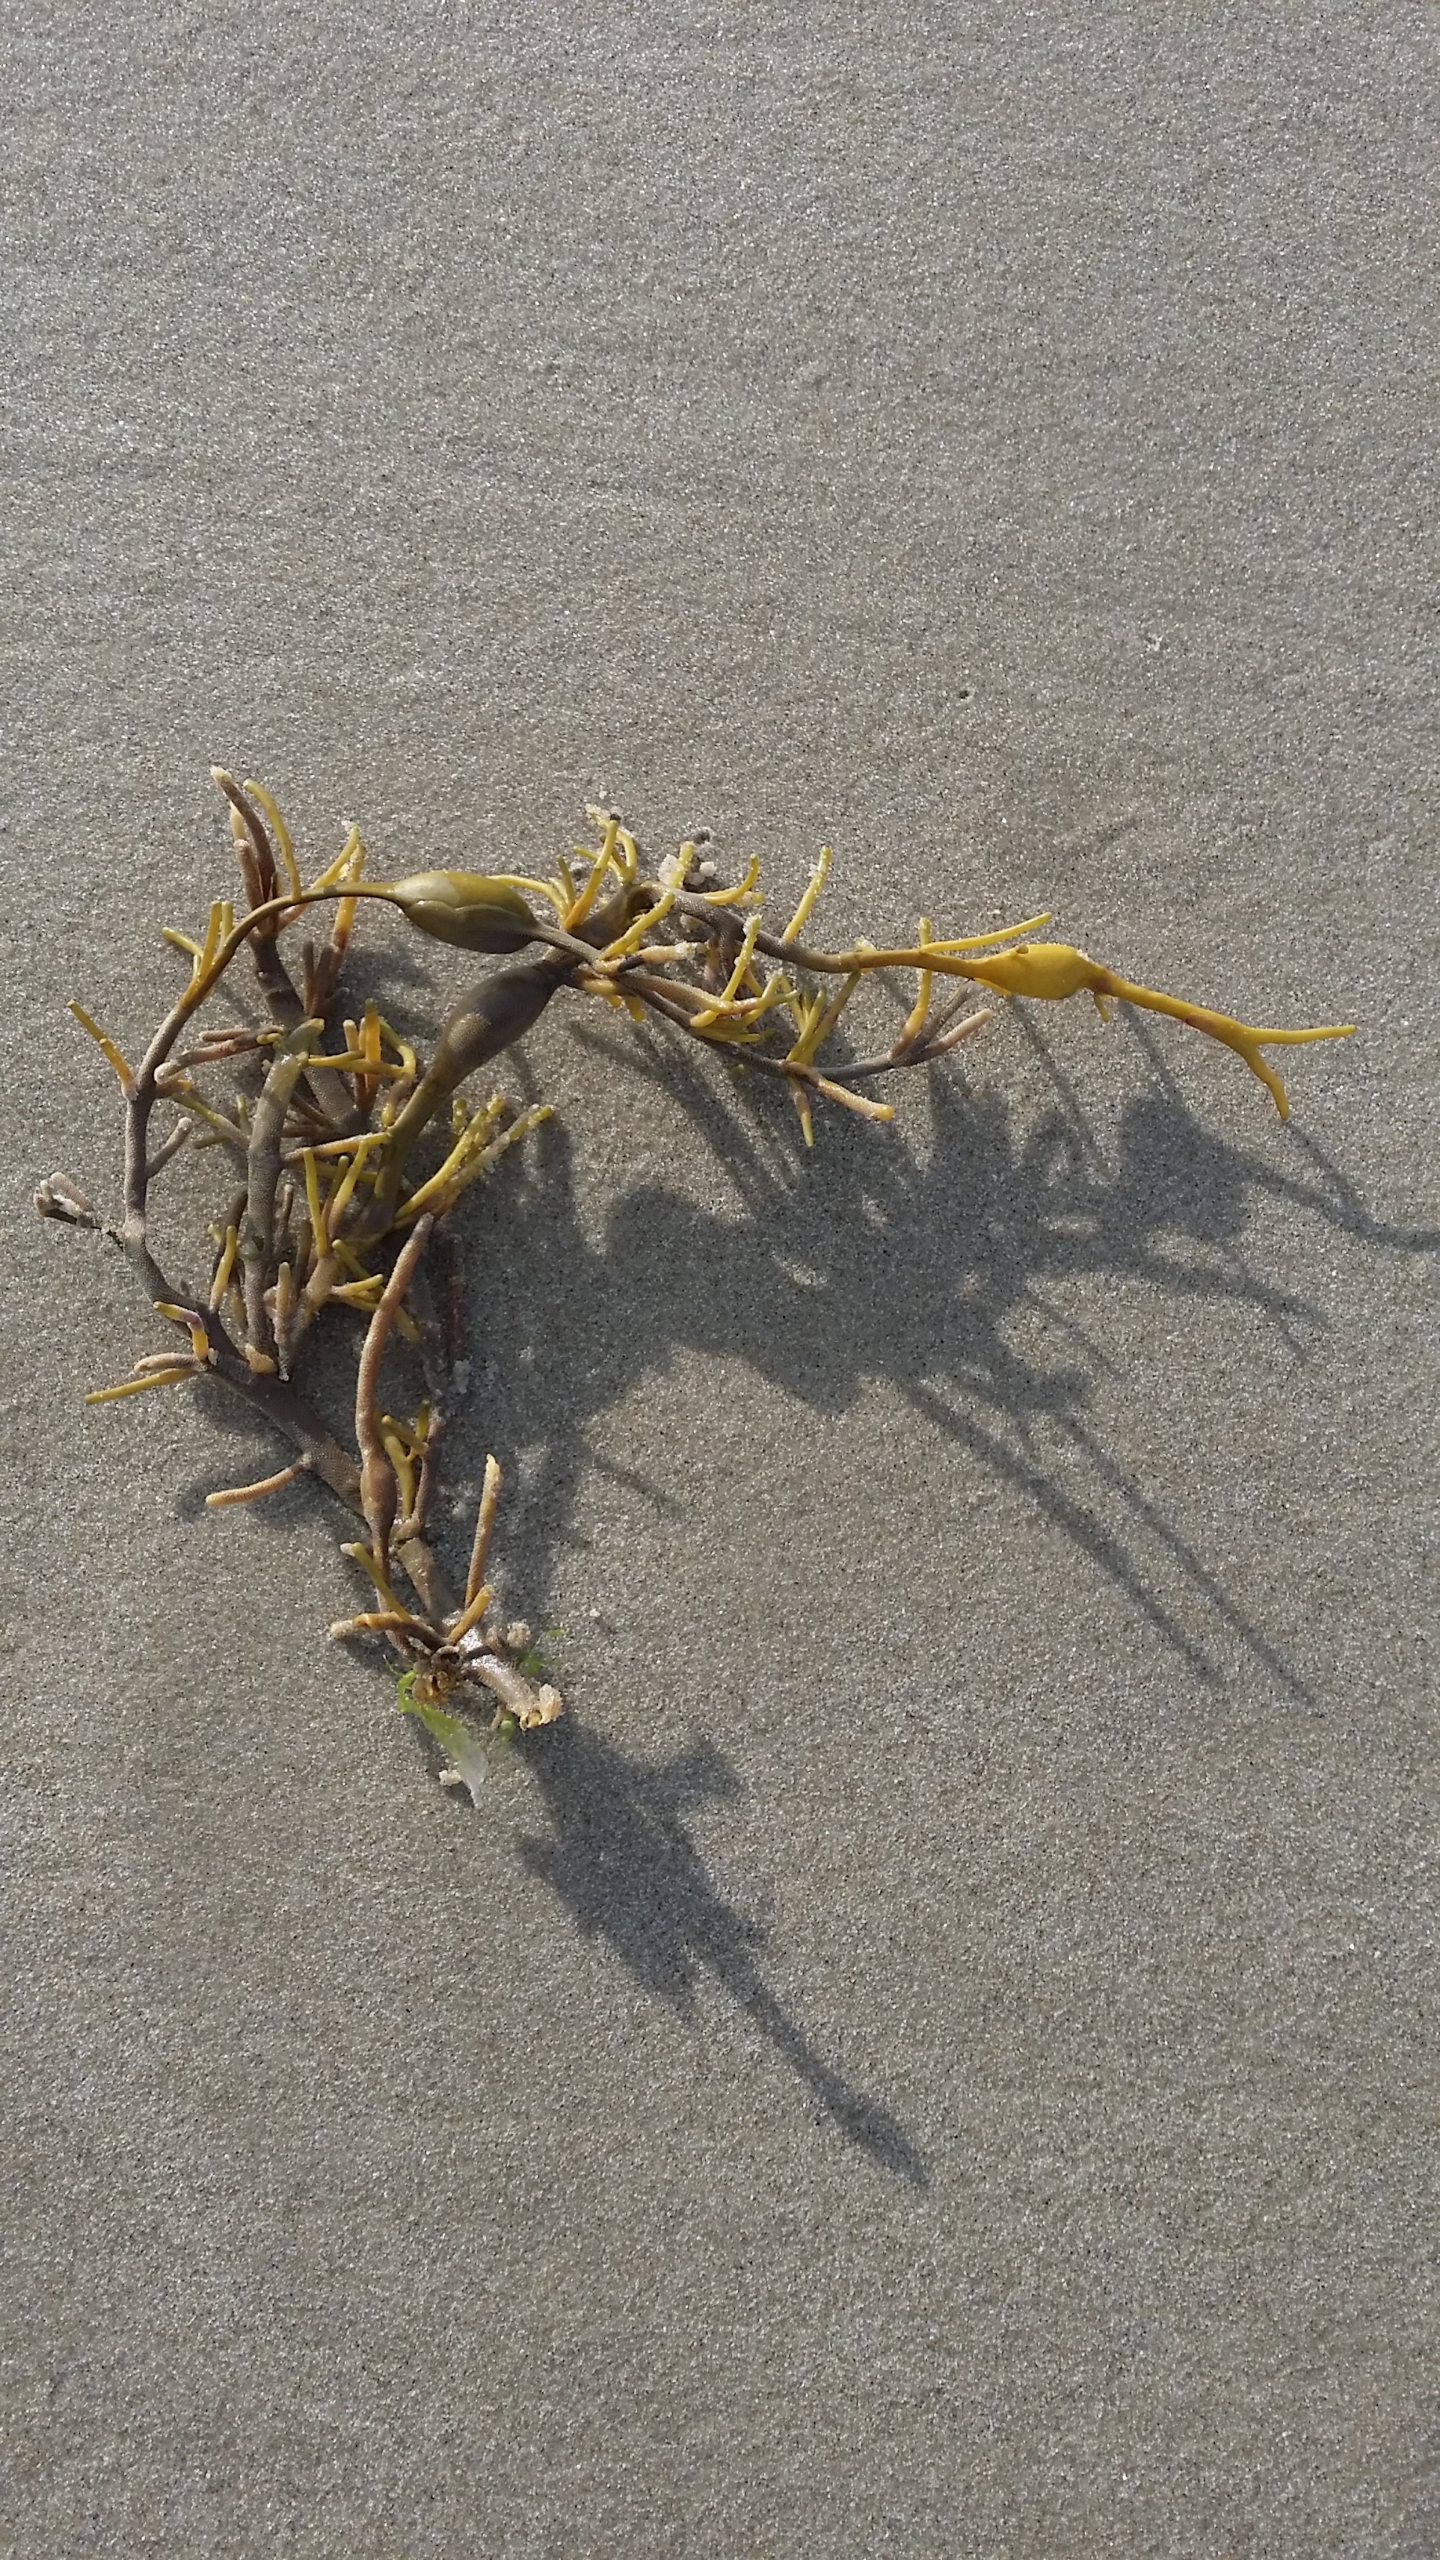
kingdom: Chromista
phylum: Ochrophyta
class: Phaeophyceae
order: Fucales
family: Fucaceae
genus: Ascophyllum
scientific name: Ascophyllum nodosum
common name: Buletang
